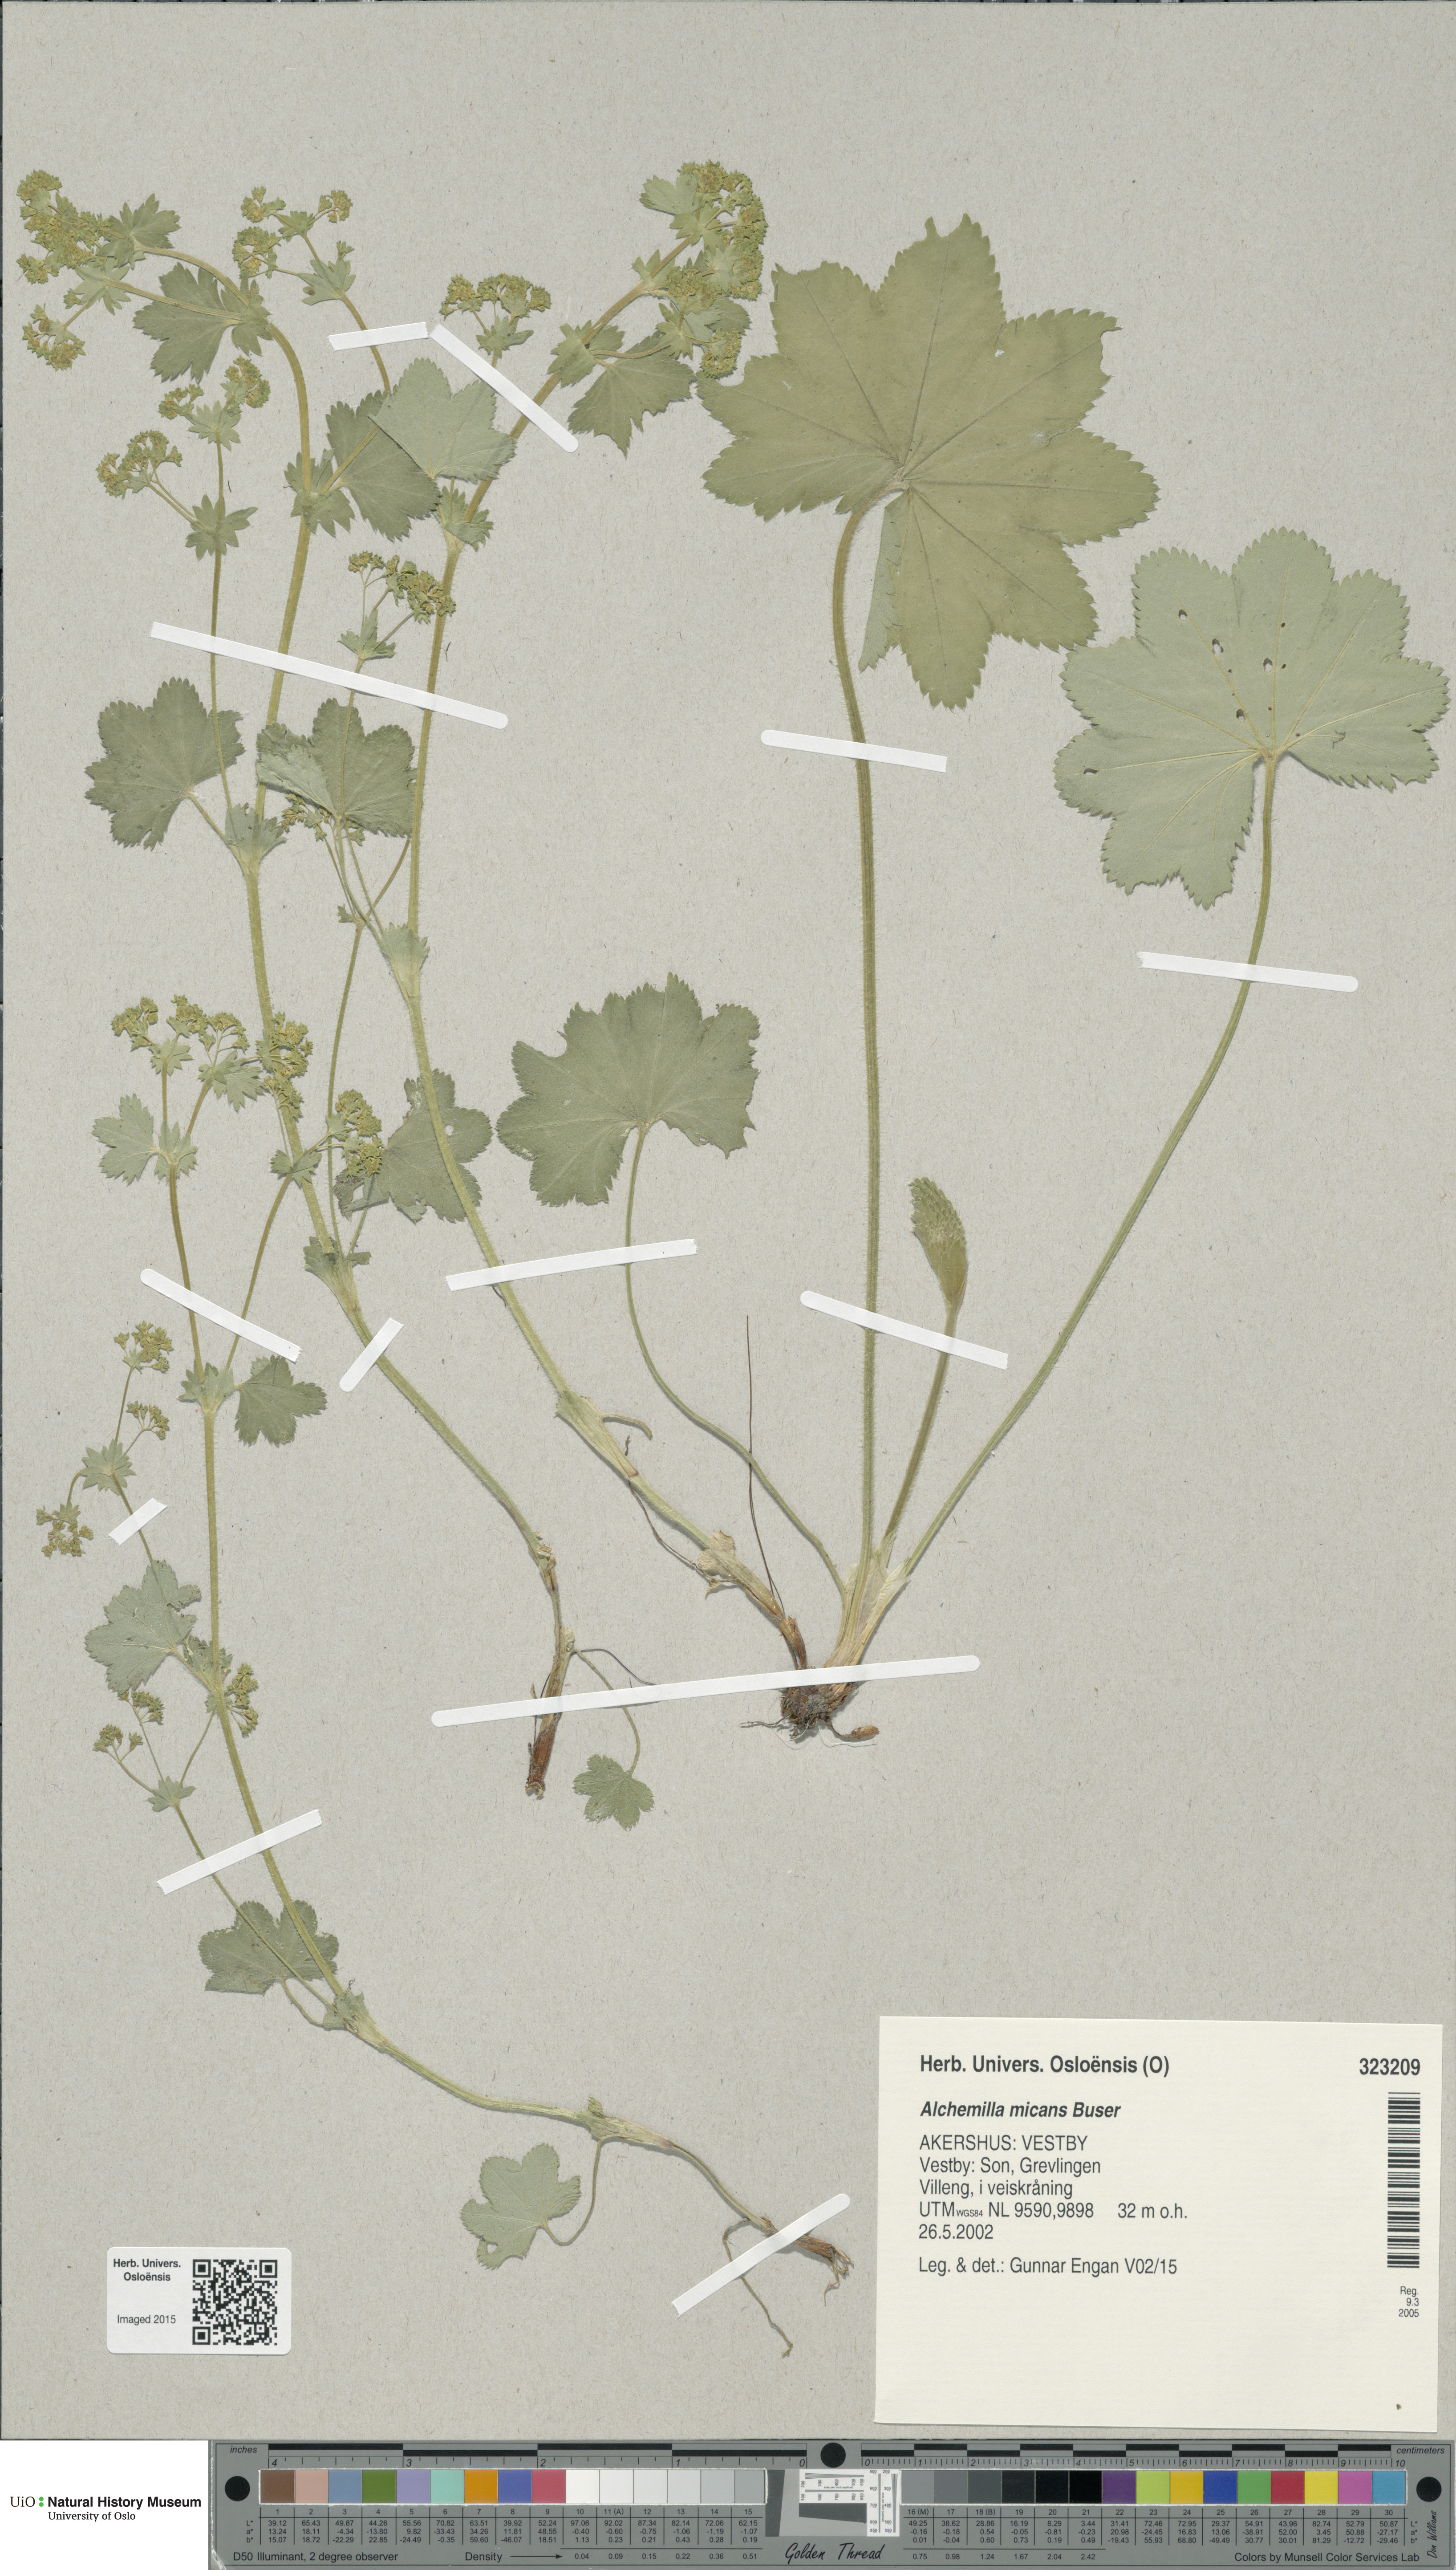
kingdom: Plantae
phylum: Tracheophyta
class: Magnoliopsida
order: Rosales
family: Rosaceae
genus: Alchemilla
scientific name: Alchemilla micans
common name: Gleaming lady's mantle
